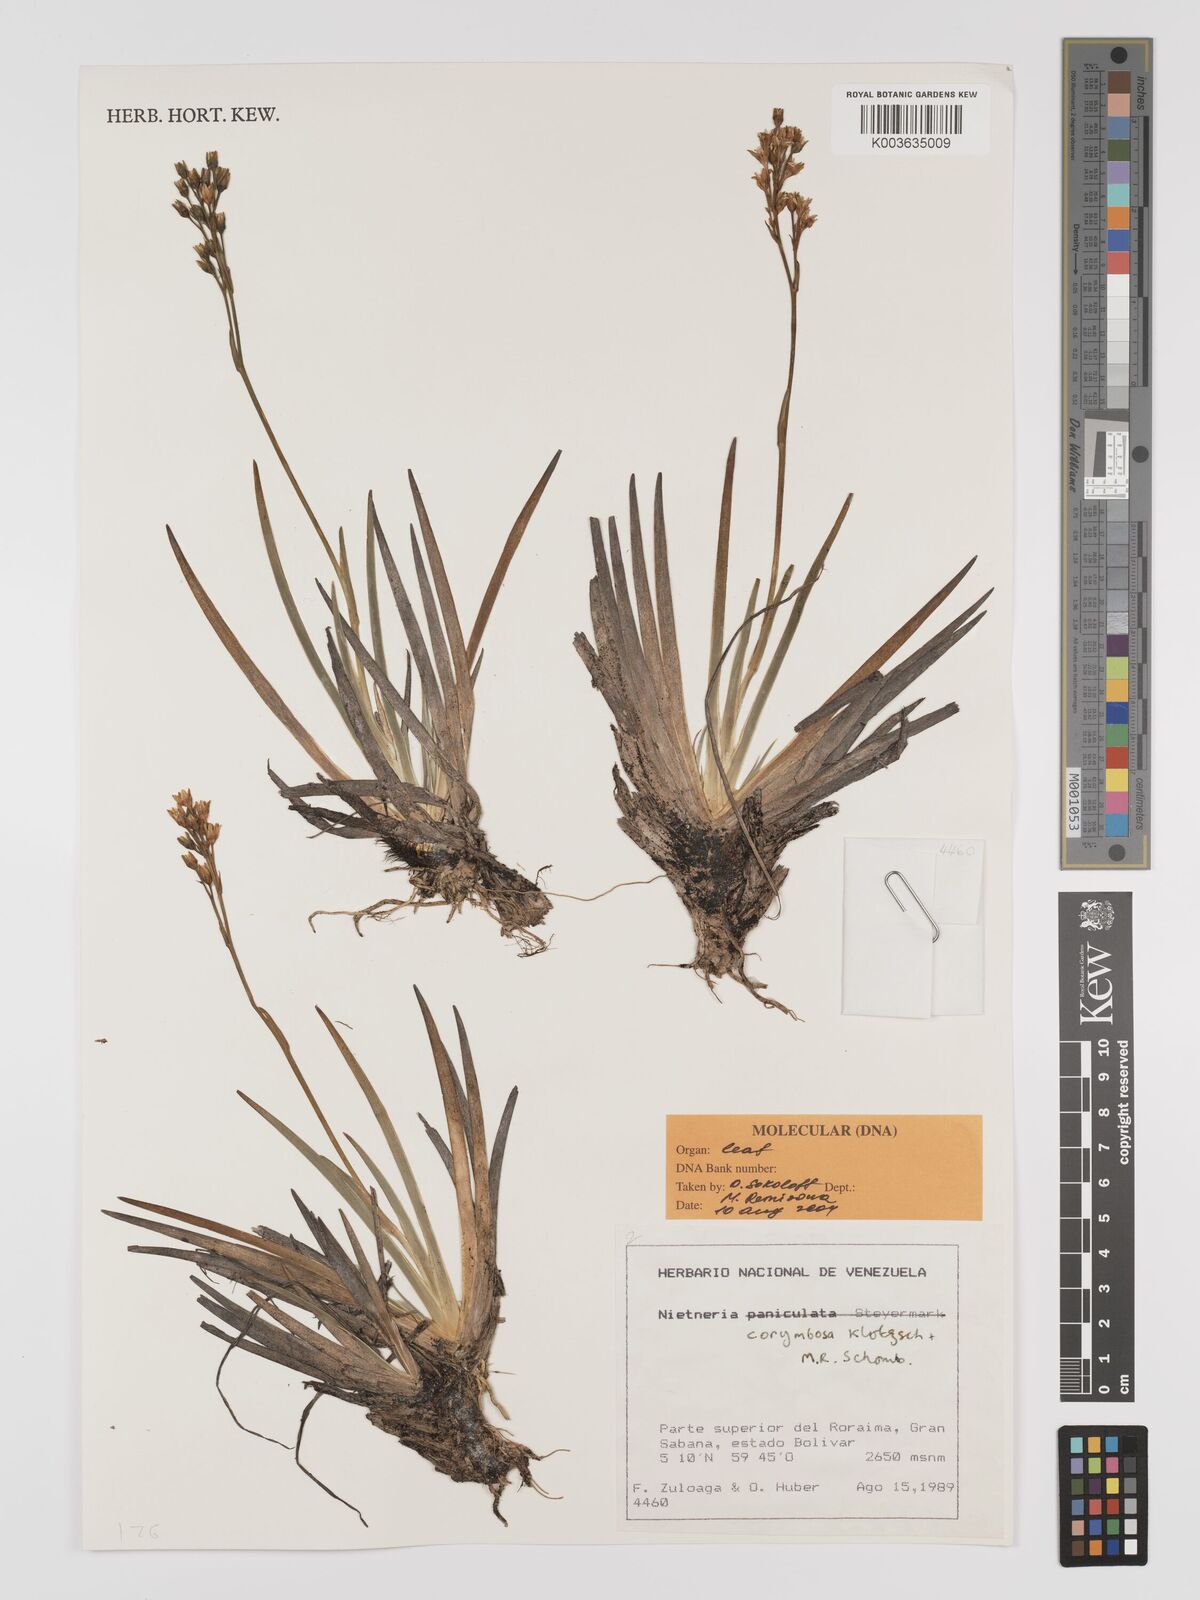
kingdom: Plantae
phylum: Tracheophyta
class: Liliopsida
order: Dioscoreales
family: Nartheciaceae
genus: Nietneria
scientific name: Nietneria corymbosa
